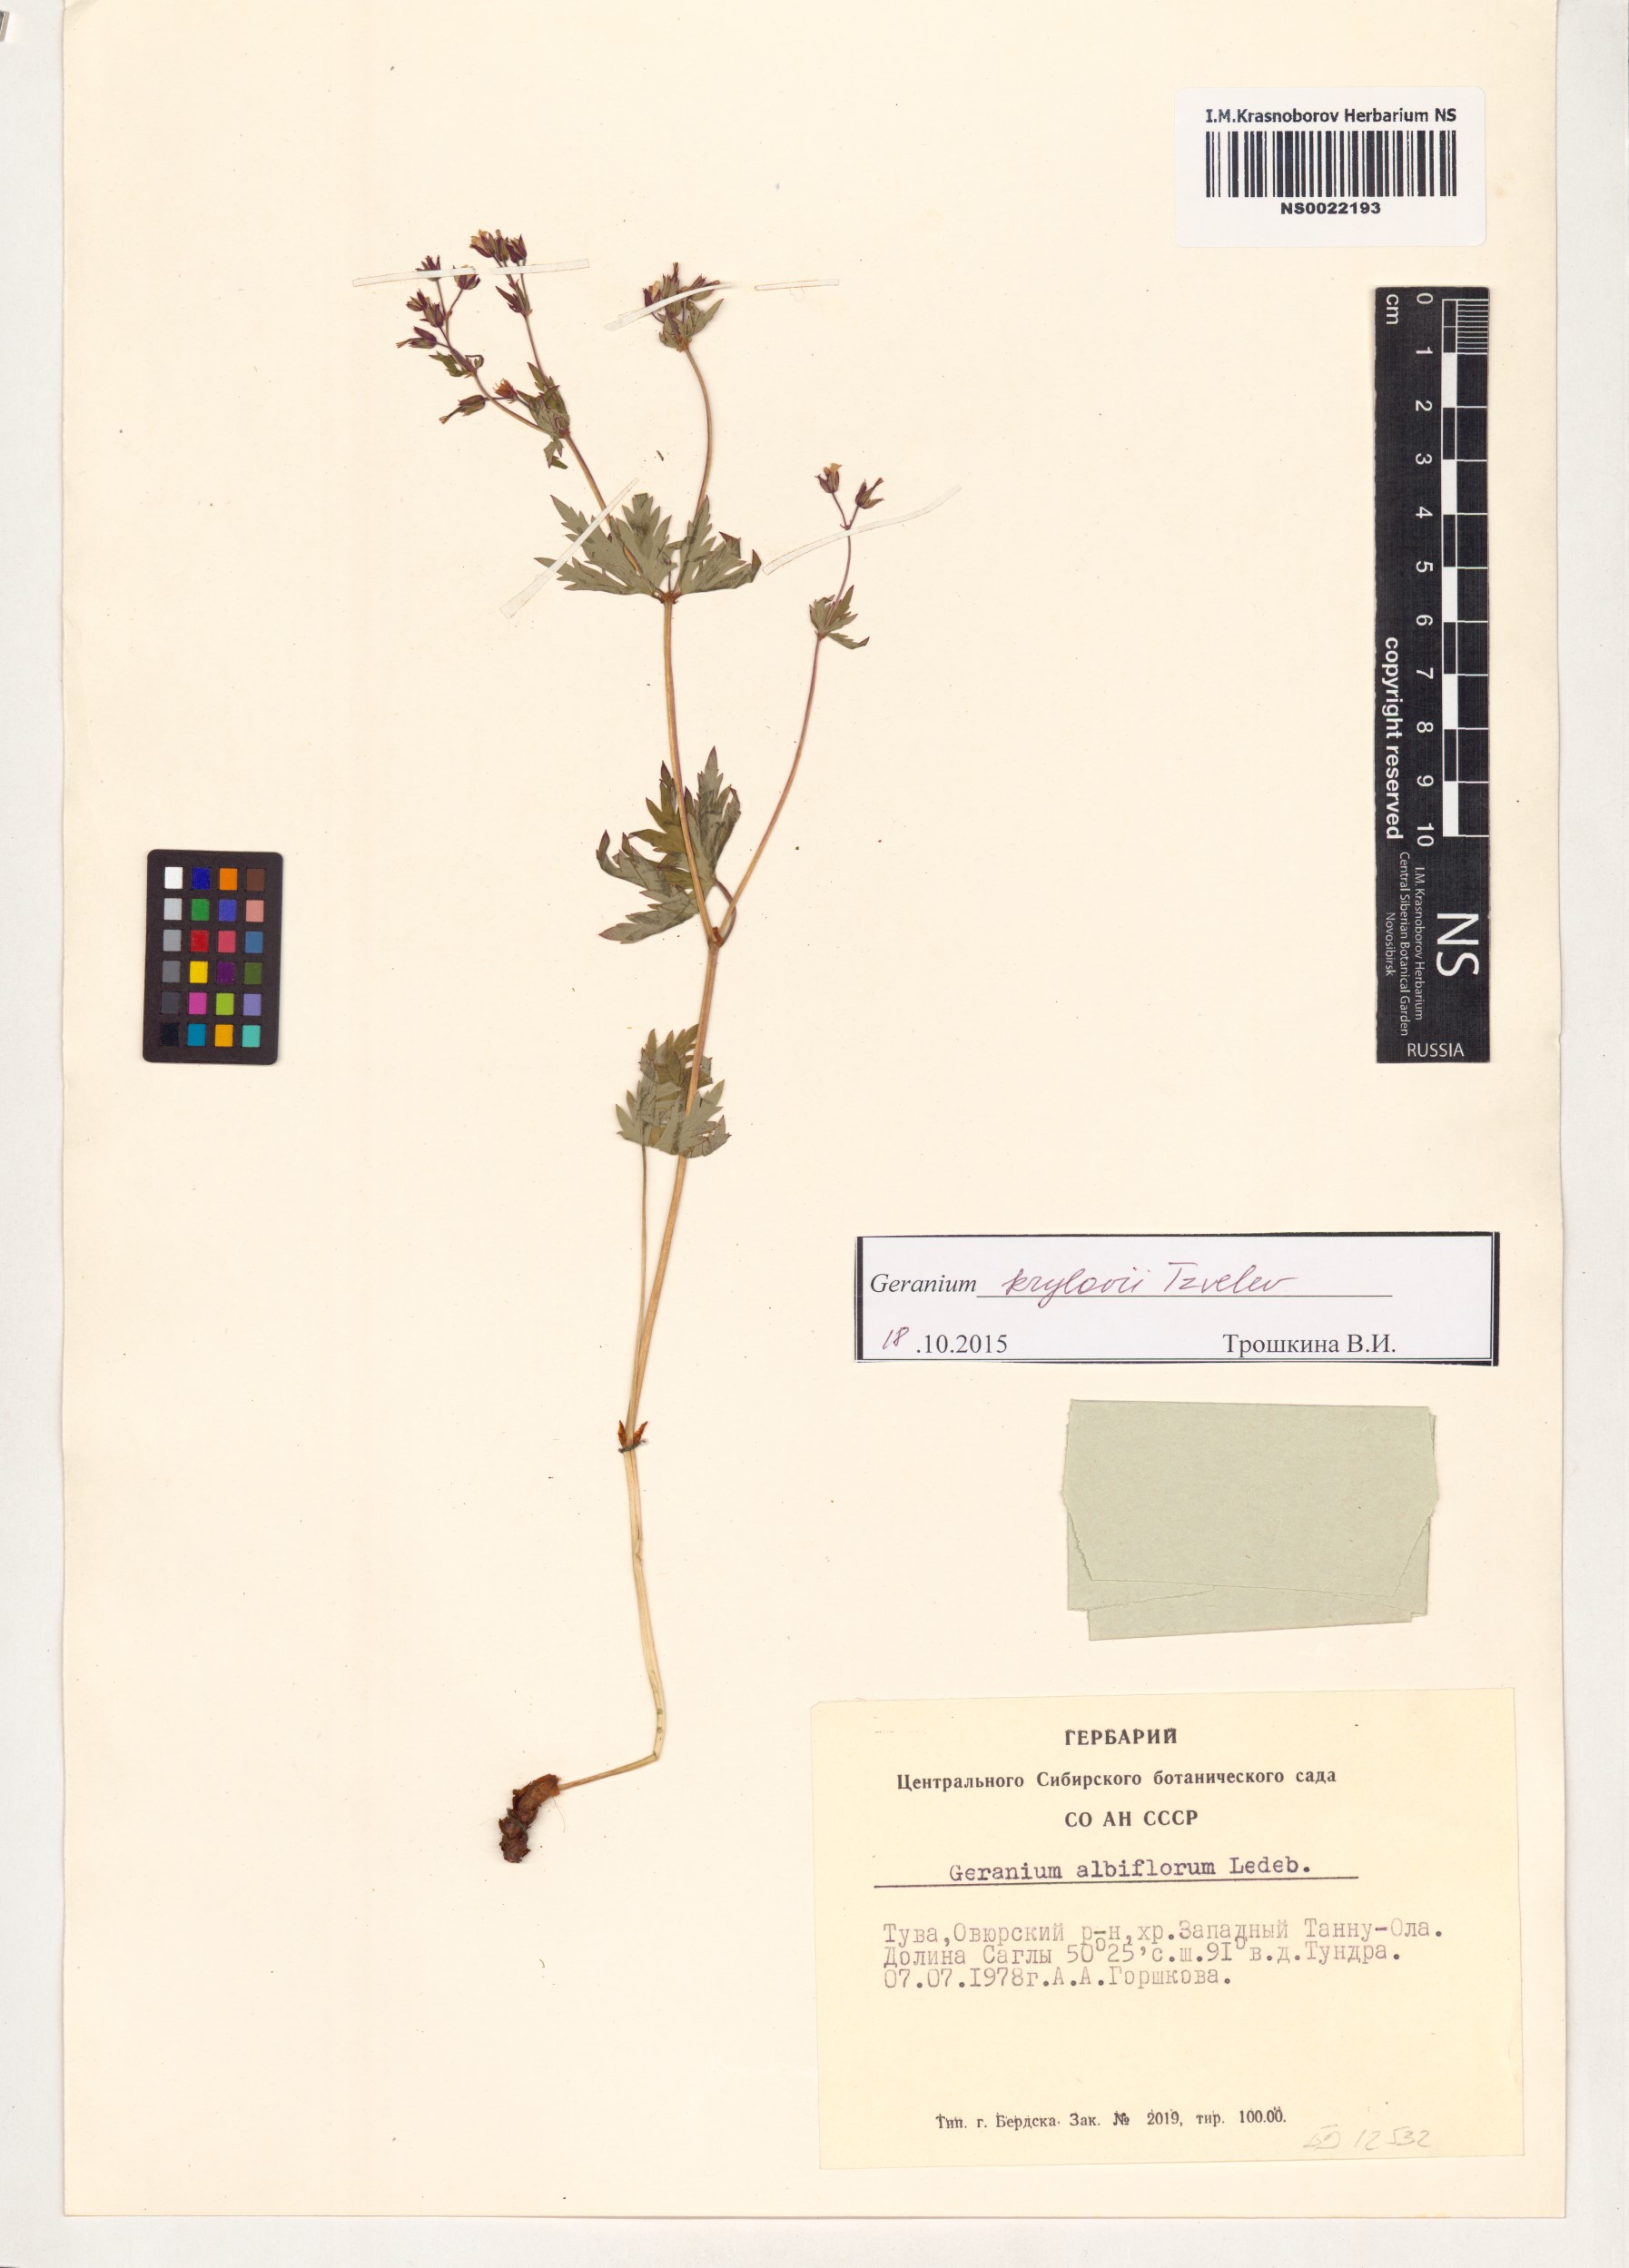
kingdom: Plantae
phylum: Tracheophyta
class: Magnoliopsida
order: Geraniales
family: Geraniaceae
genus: Geranium
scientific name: Geranium sylvaticum
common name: Wood crane's-bill
